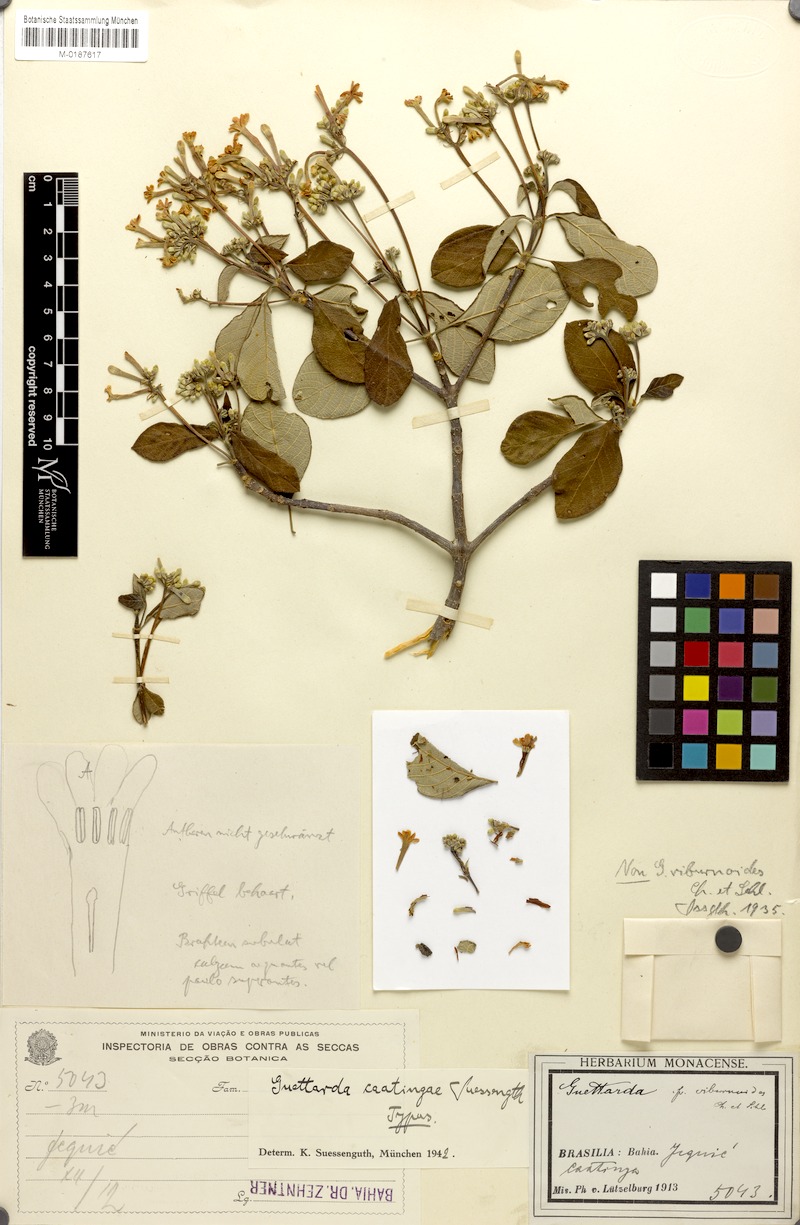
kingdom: Plantae
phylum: Tracheophyta
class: Magnoliopsida
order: Gentianales
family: Rubiaceae
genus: Guettarda
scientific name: Guettarda caatingae
